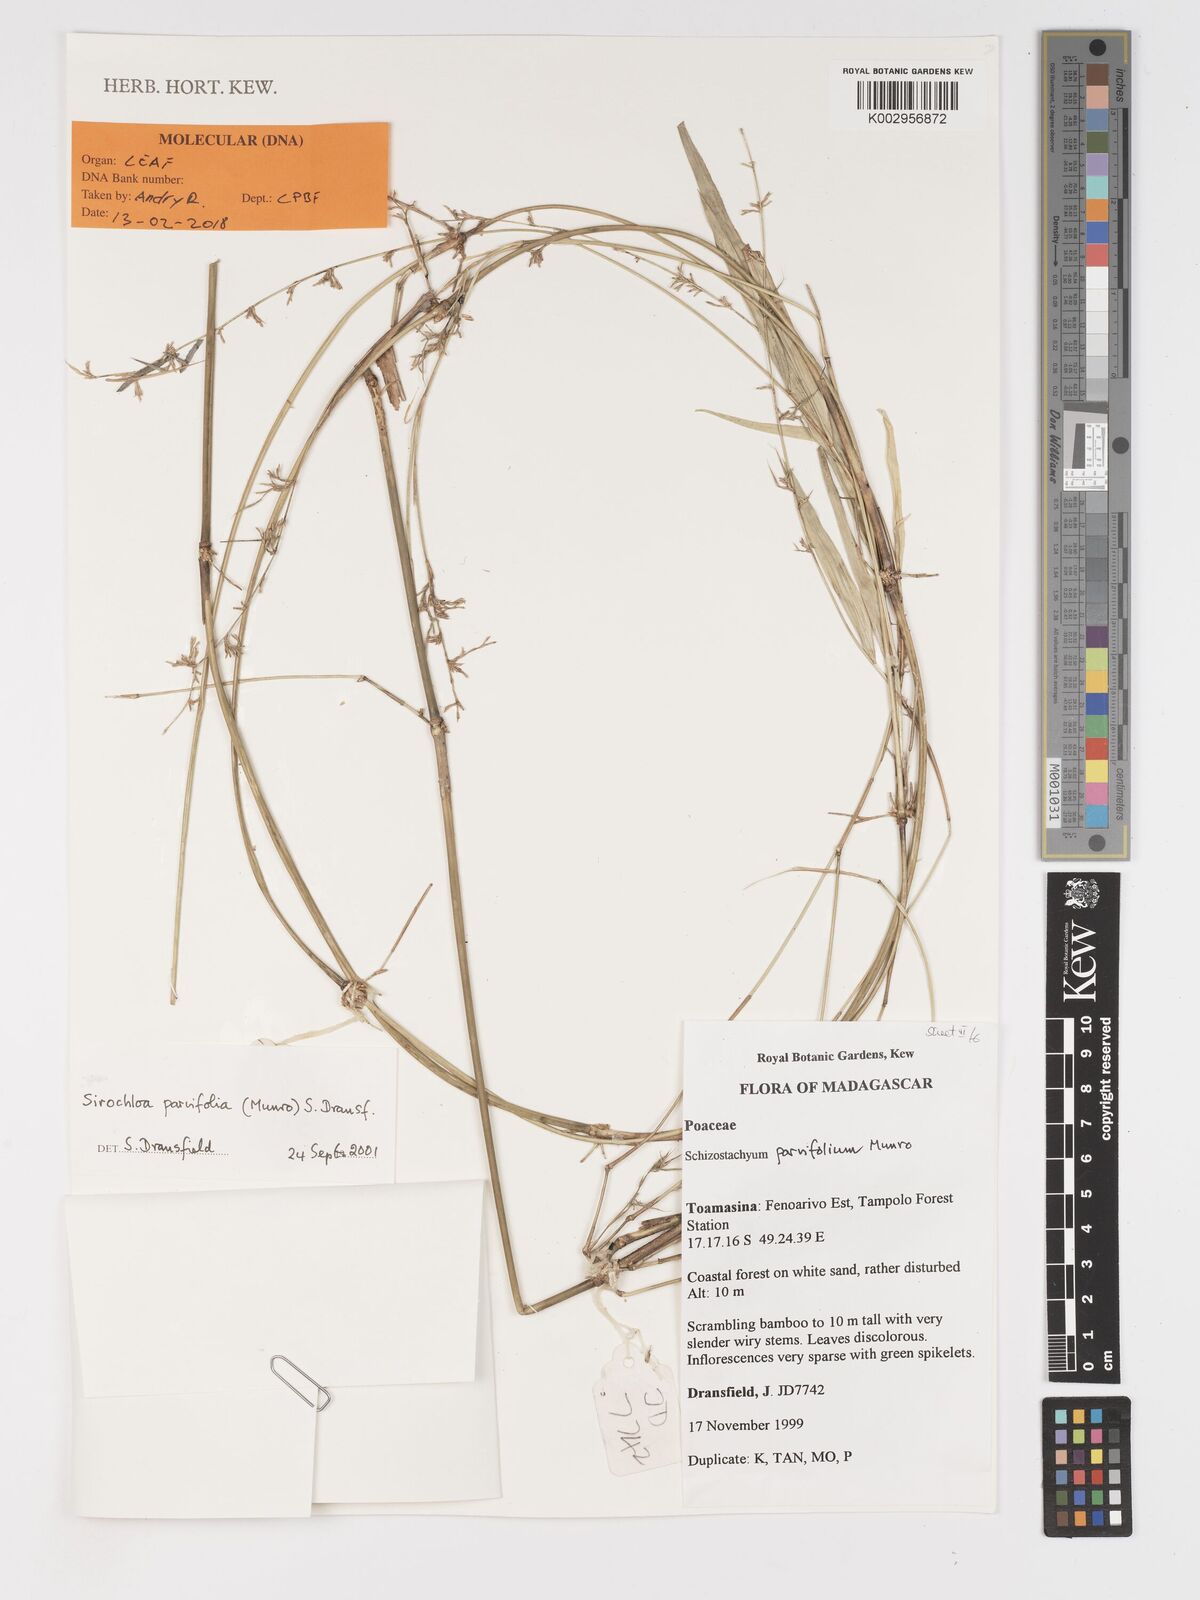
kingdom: Plantae
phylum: Tracheophyta
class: Liliopsida
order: Poales
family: Poaceae
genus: Sirochloa
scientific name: Sirochloa parvifolia
